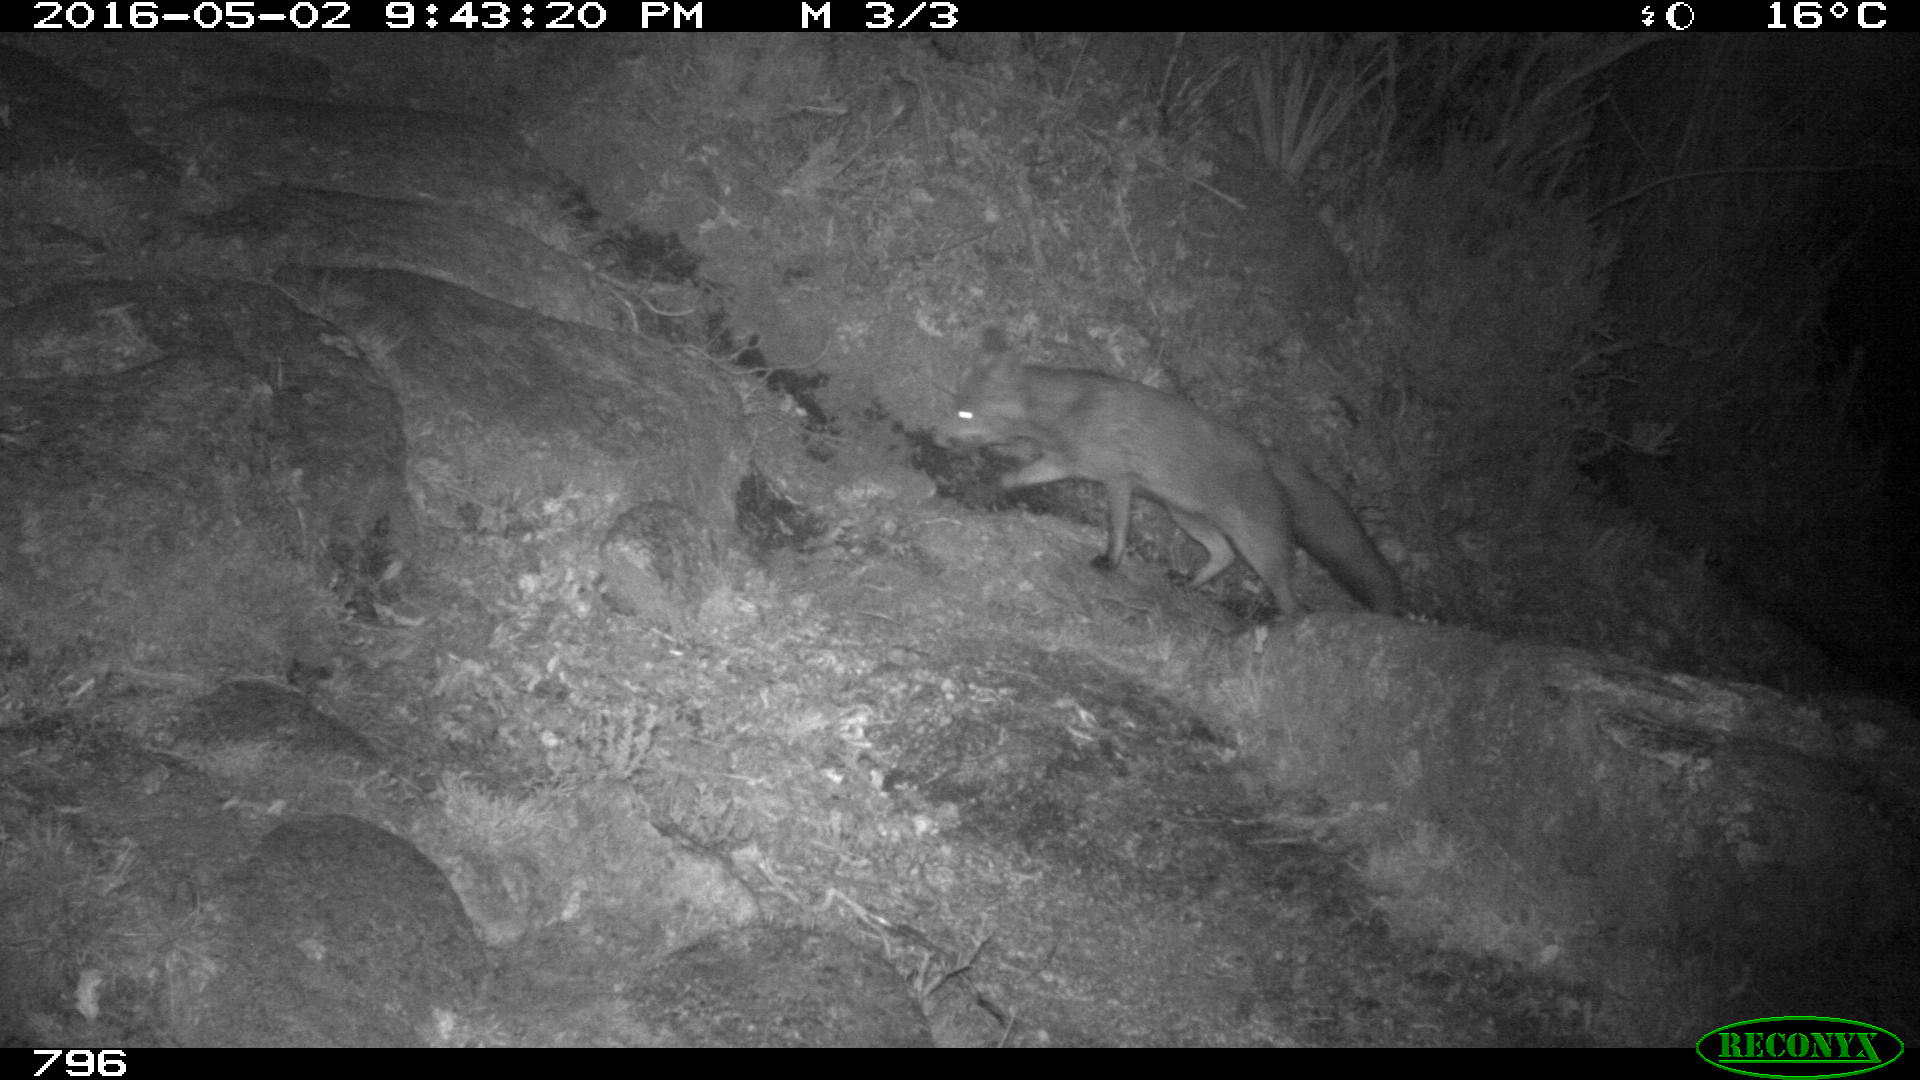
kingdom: Animalia
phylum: Chordata
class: Mammalia
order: Carnivora
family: Canidae
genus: Vulpes
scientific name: Vulpes vulpes
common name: Red fox
